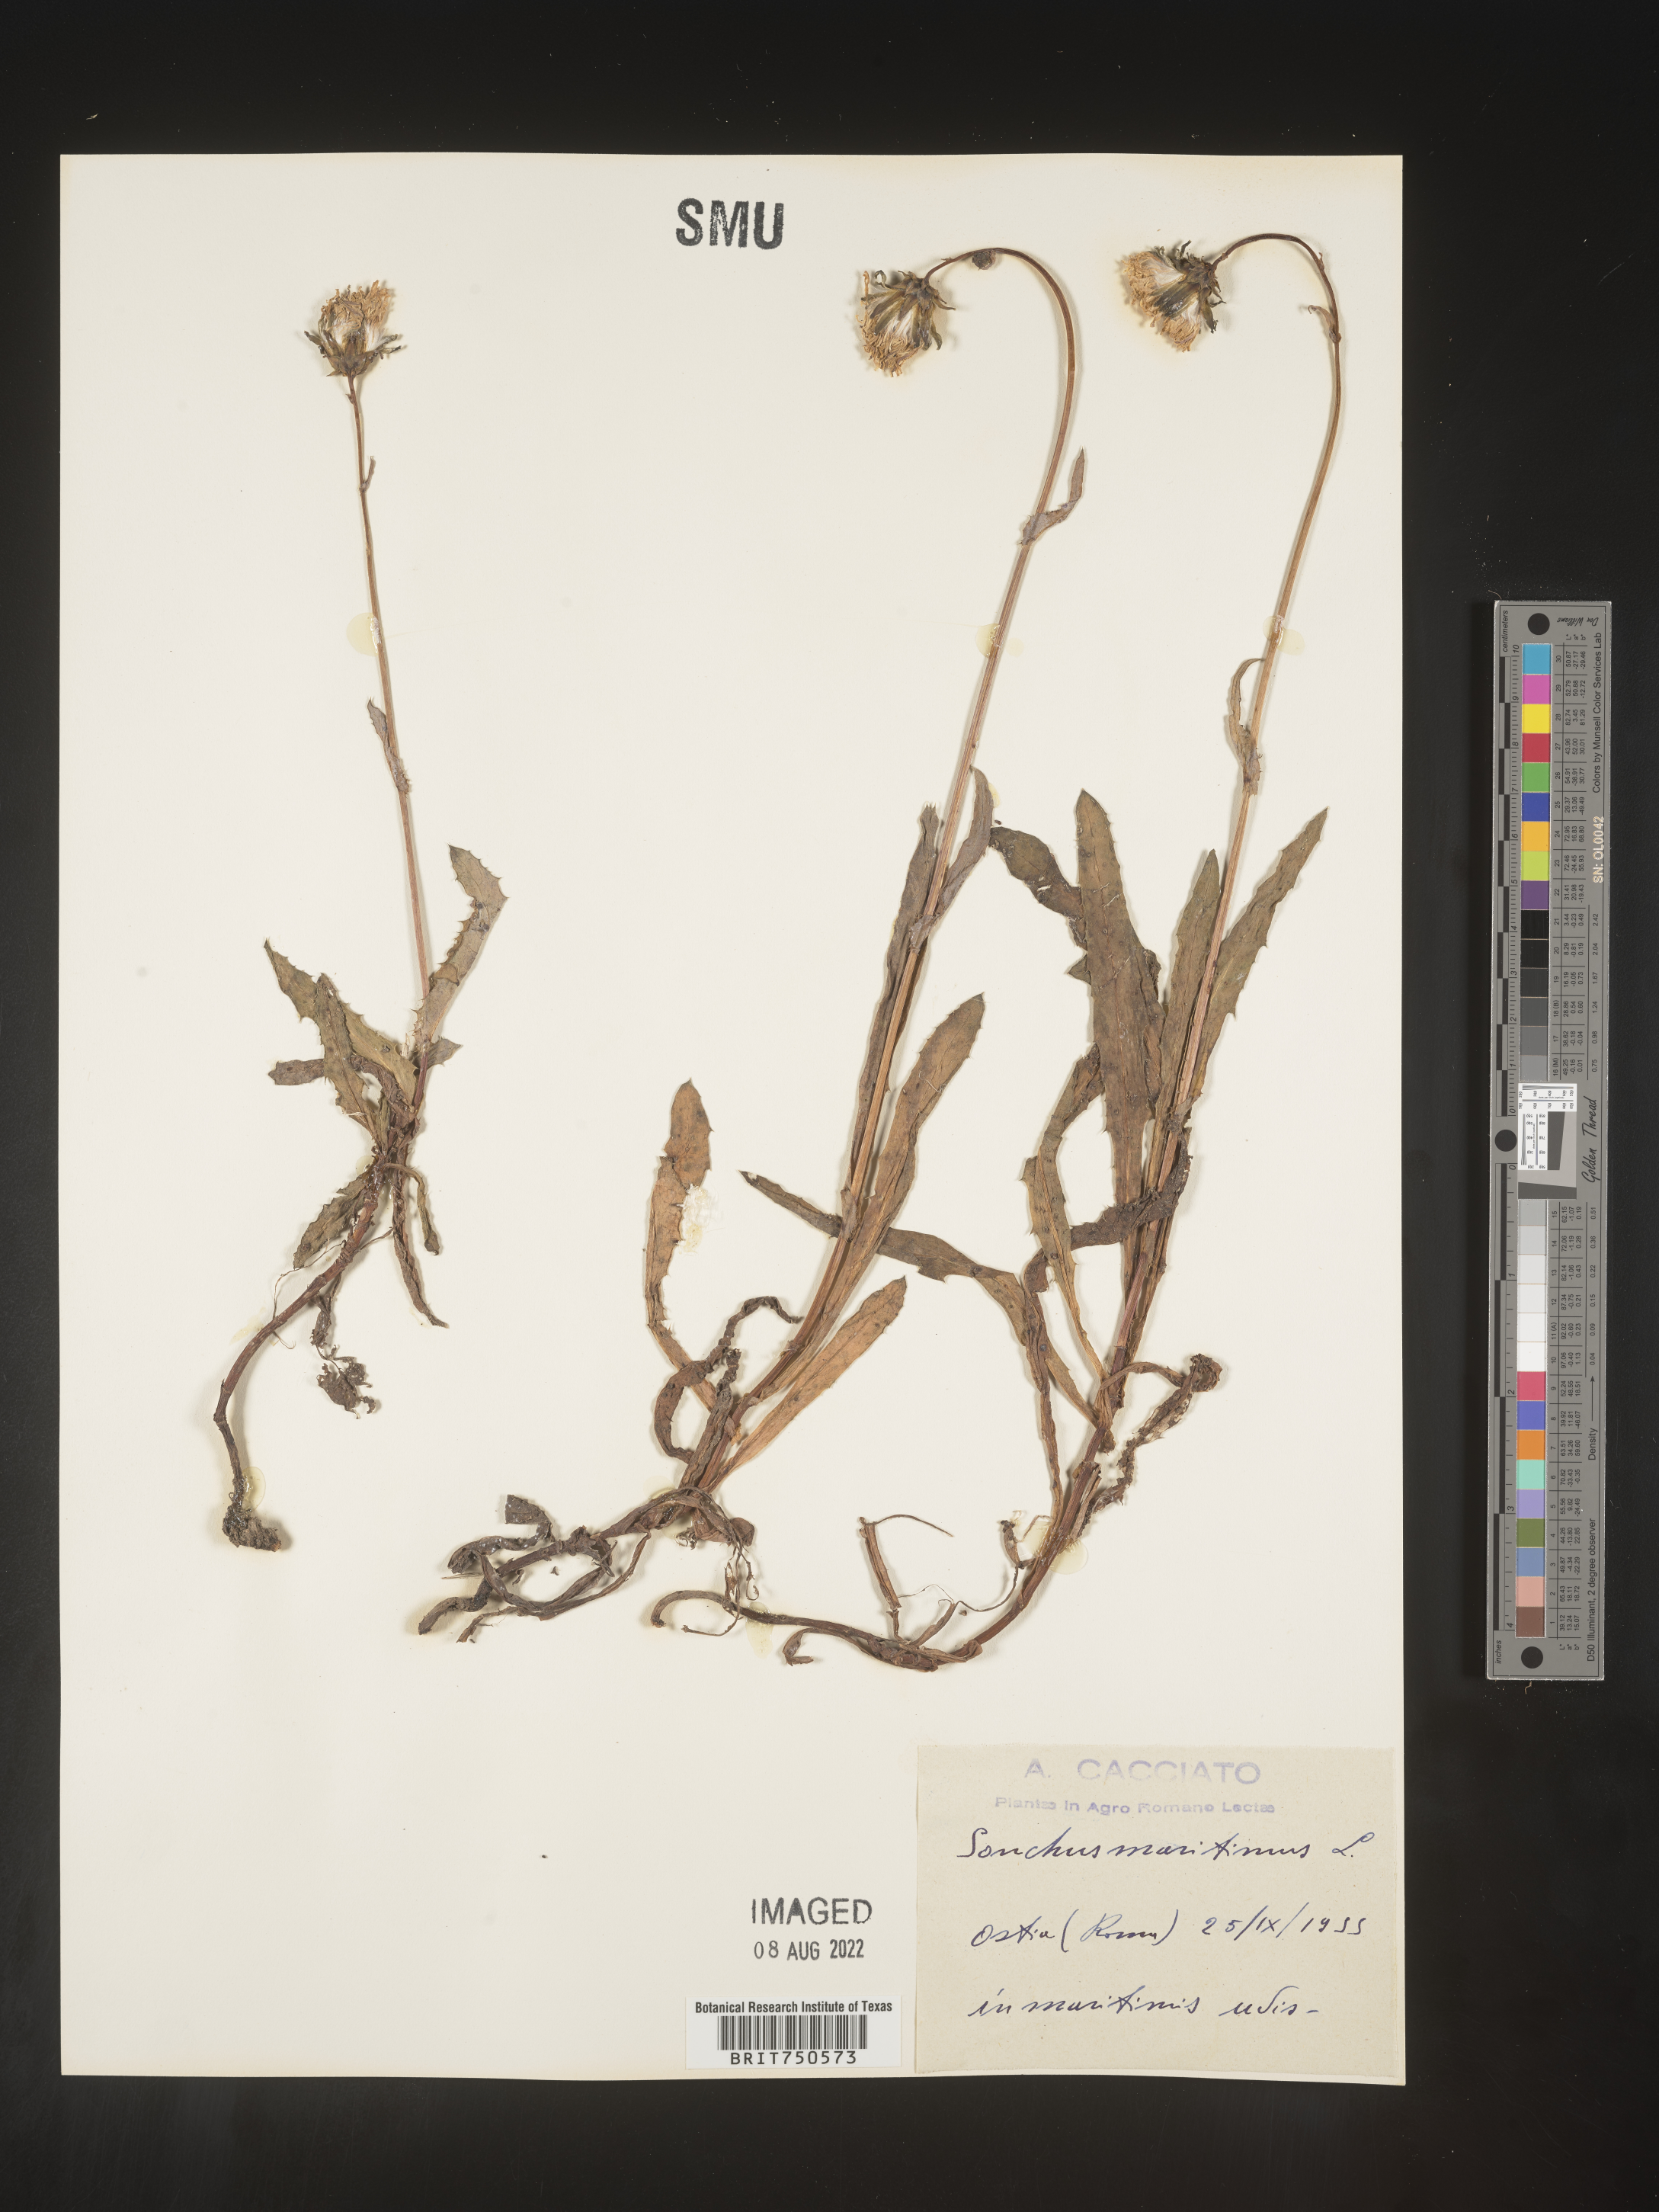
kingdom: Plantae
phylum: Tracheophyta
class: Magnoliopsida
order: Asterales
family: Asteraceae
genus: Sonchus
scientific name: Sonchus
